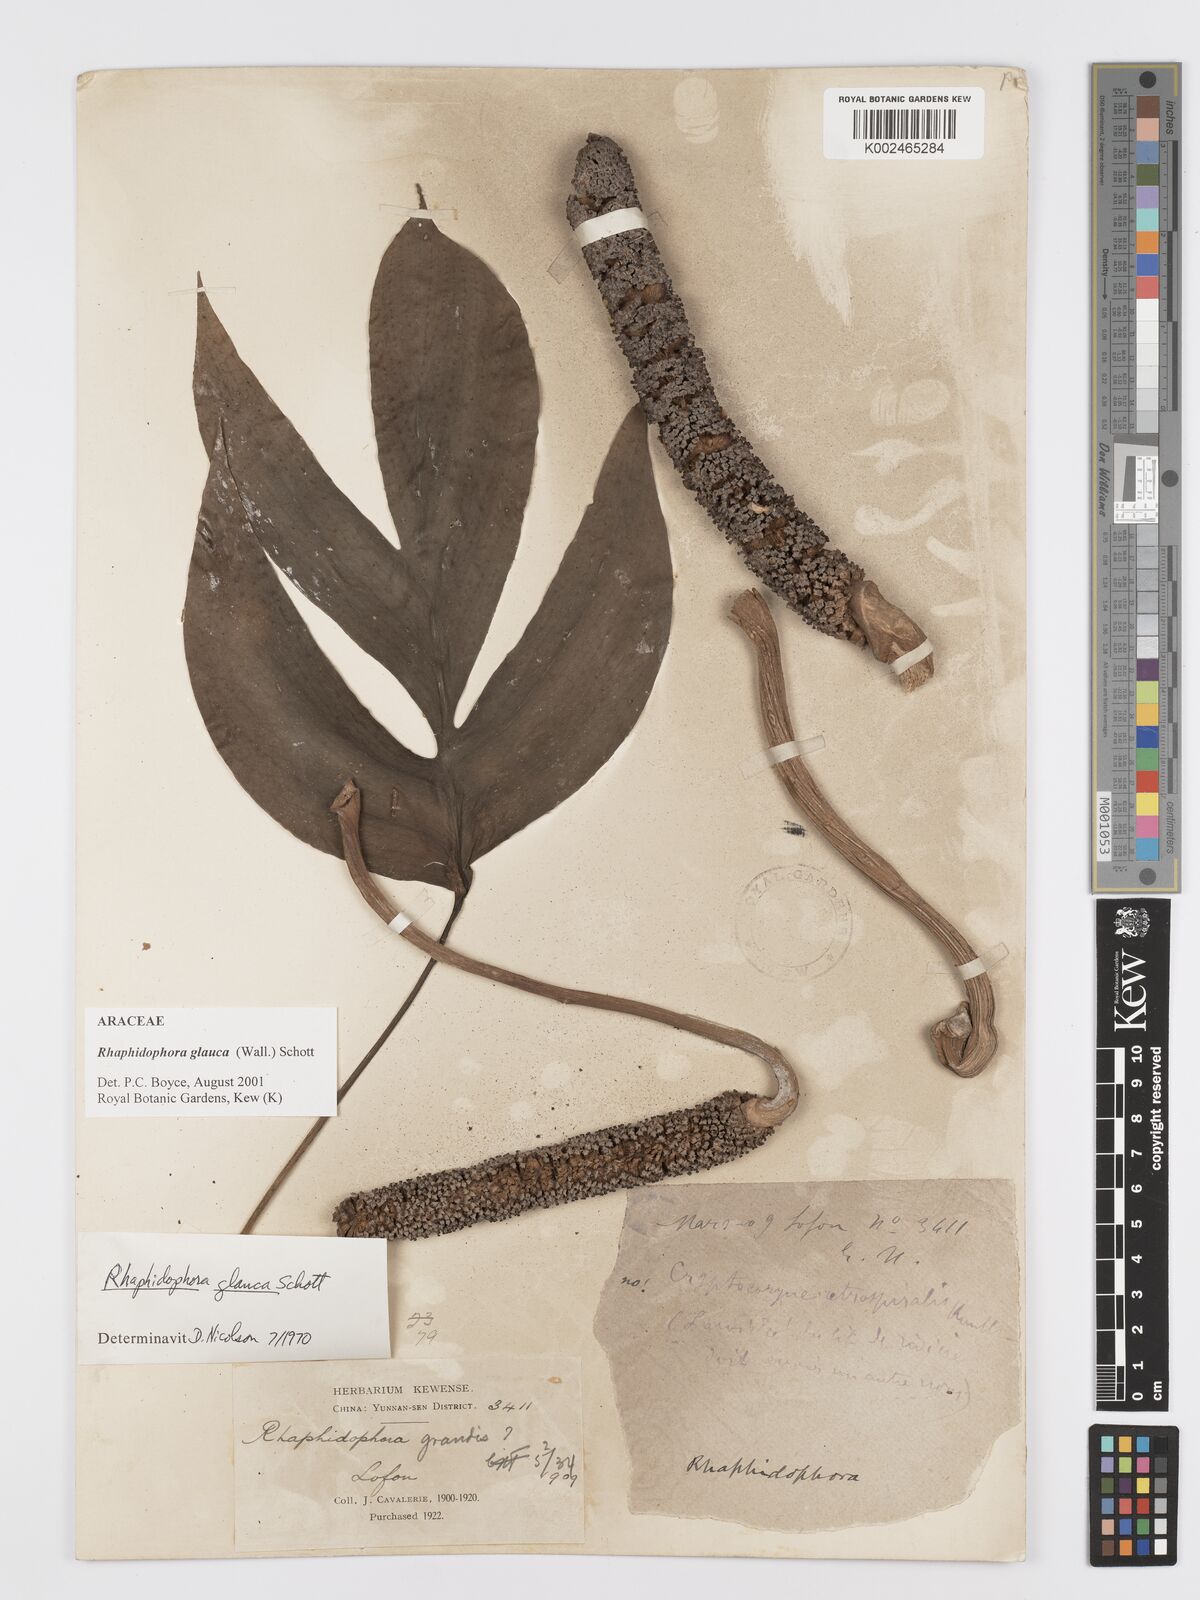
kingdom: Plantae
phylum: Tracheophyta
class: Liliopsida
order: Alismatales
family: Araceae
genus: Rhaphidophora
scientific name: Rhaphidophora glauca
